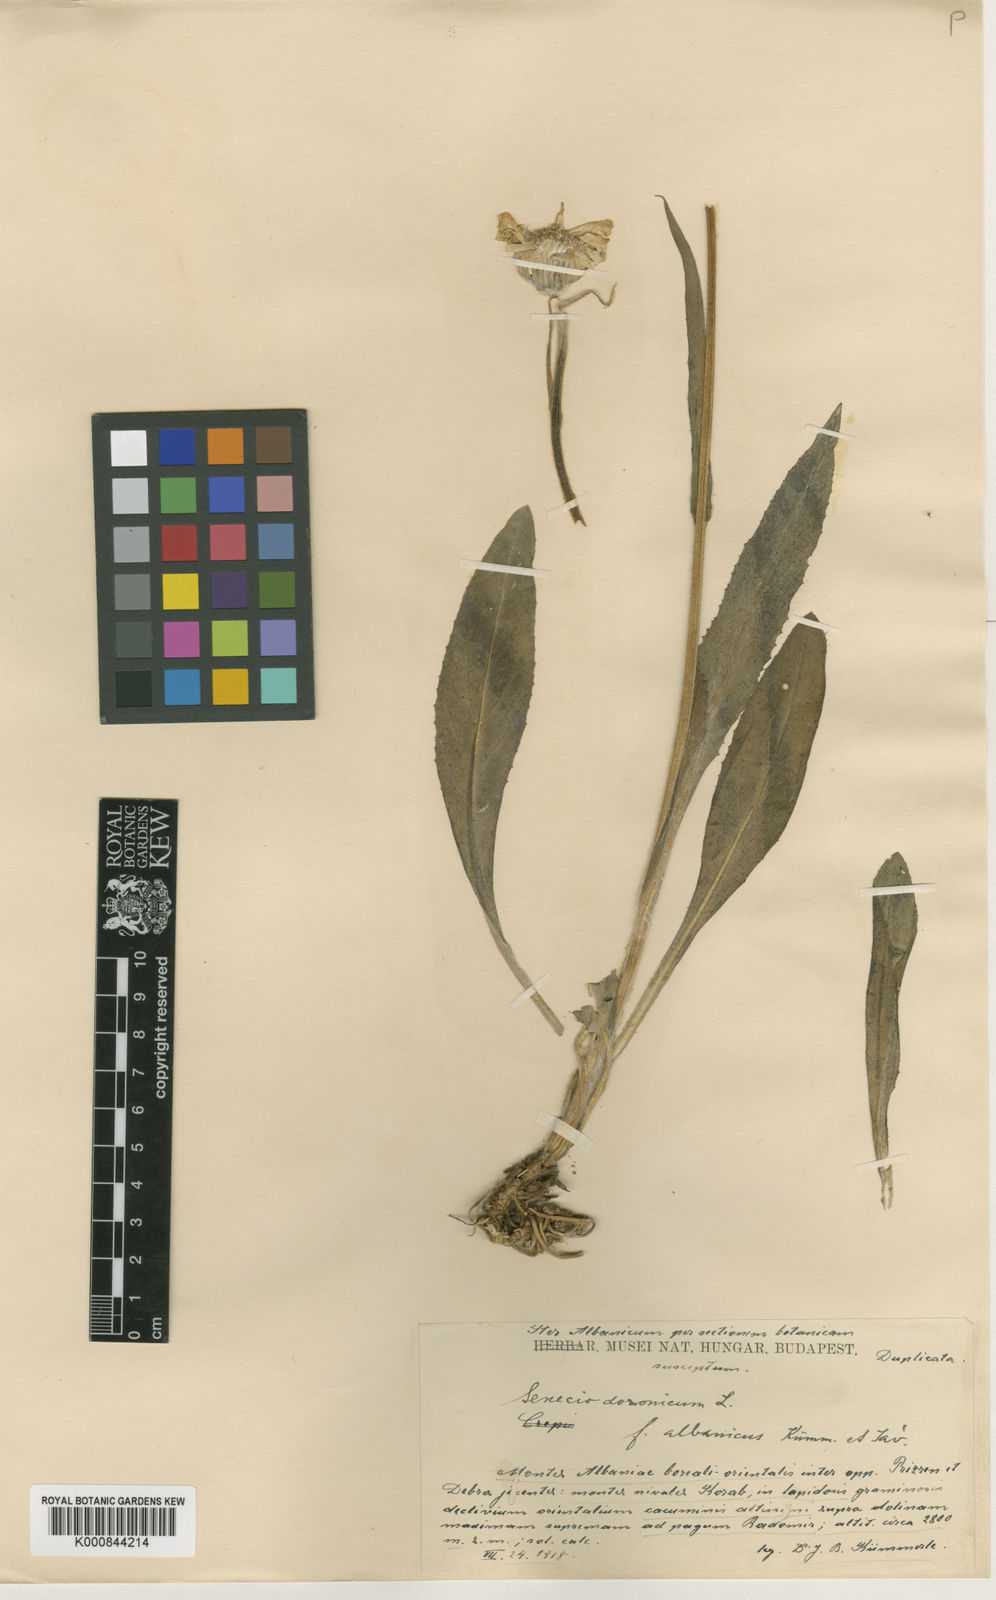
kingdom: Plantae
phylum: Tracheophyta
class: Magnoliopsida
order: Asterales
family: Asteraceae
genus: Senecio
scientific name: Senecio doronicum
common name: Chamois ragwort
